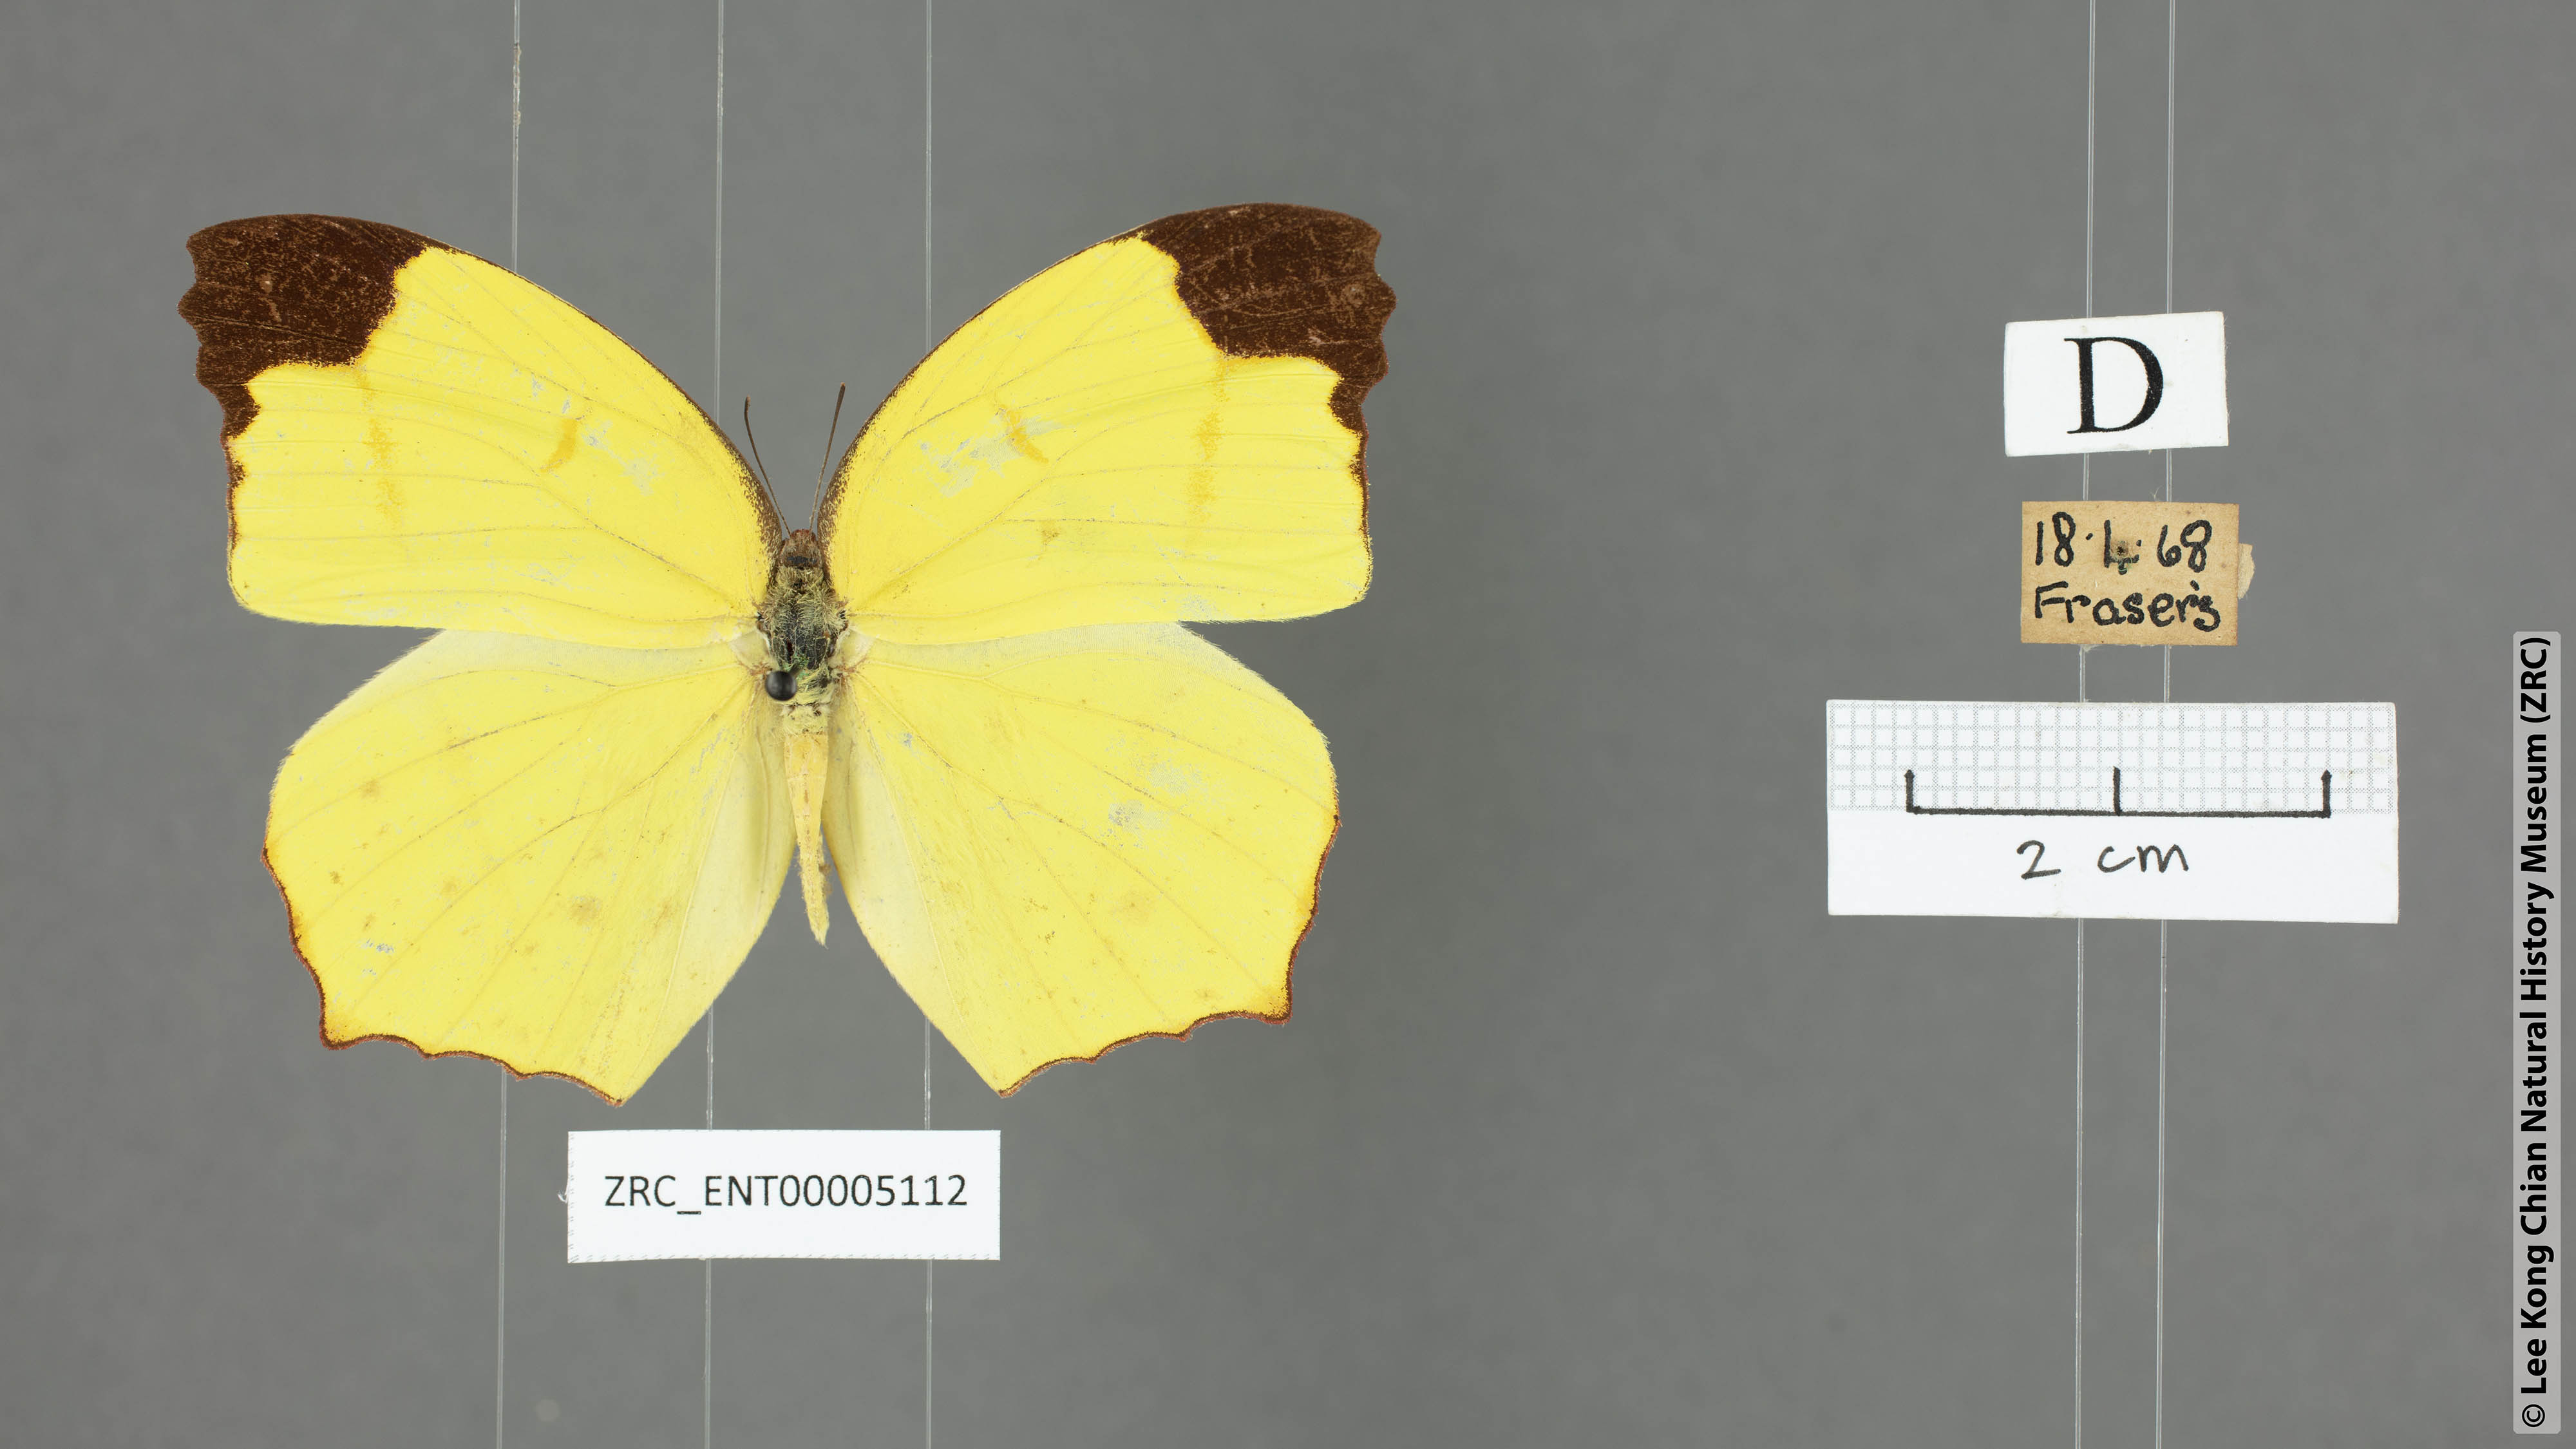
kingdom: Animalia
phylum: Arthropoda
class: Insecta
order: Lepidoptera
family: Pieridae
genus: Dercas
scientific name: Dercas verhuelli
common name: Tailed sulphur
